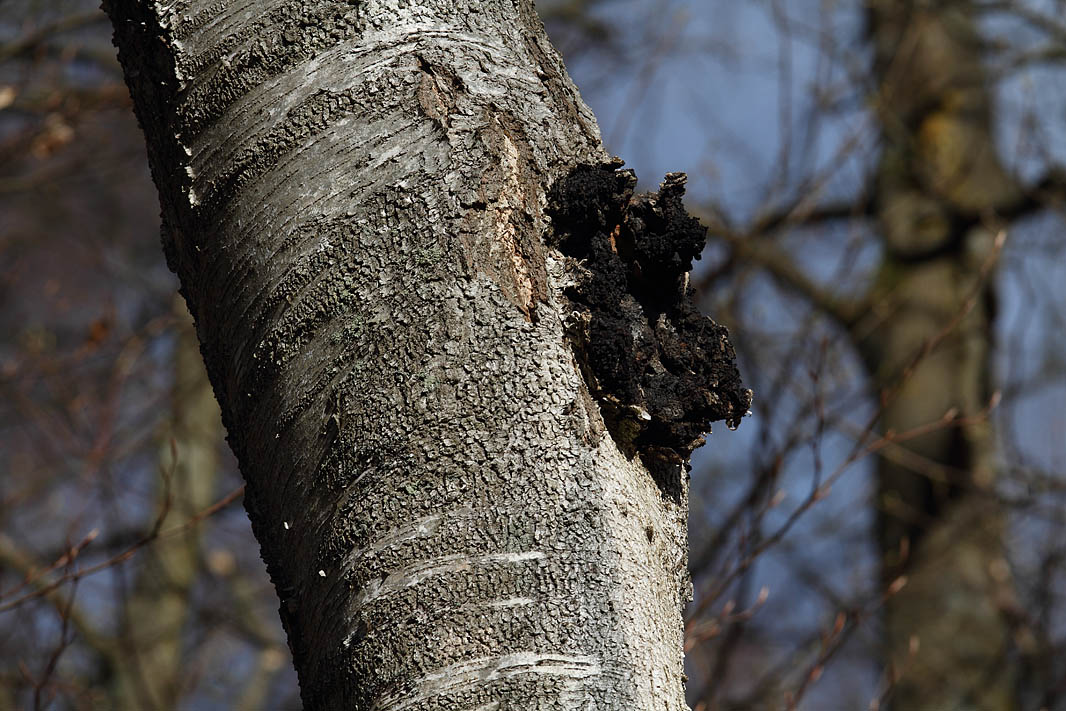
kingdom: Fungi
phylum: Basidiomycota
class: Agaricomycetes
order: Hymenochaetales
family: Hymenochaetaceae
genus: Inonotus
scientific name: Inonotus obliquus
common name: birke-spejlporesvamp
